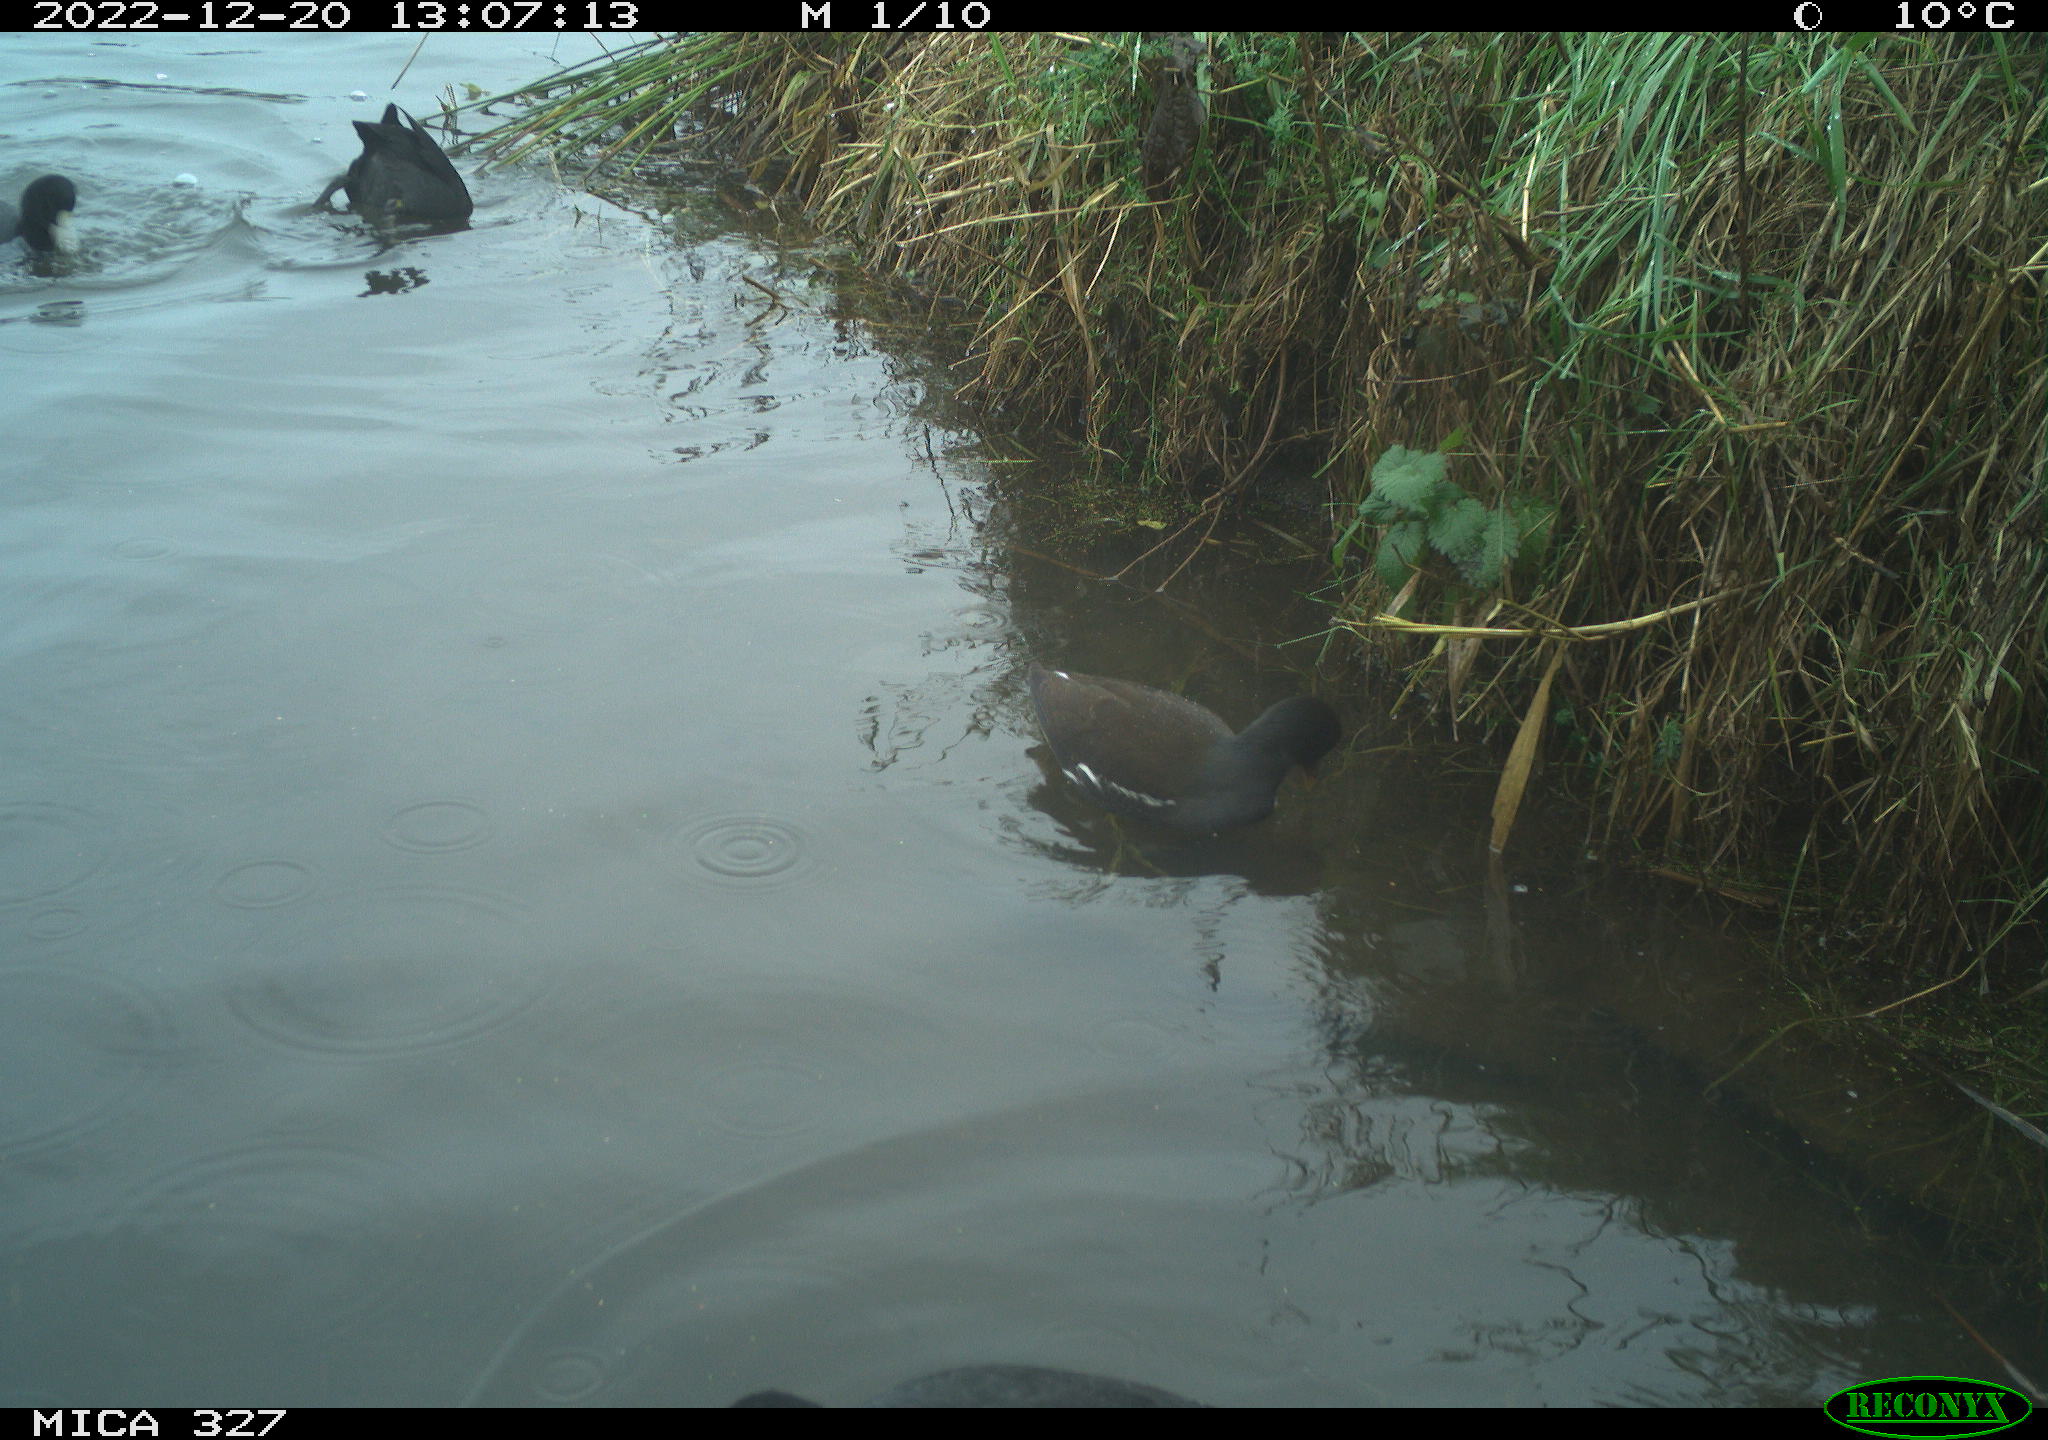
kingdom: Animalia
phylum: Chordata
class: Aves
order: Gruiformes
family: Rallidae
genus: Fulica
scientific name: Fulica atra
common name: Eurasian coot
